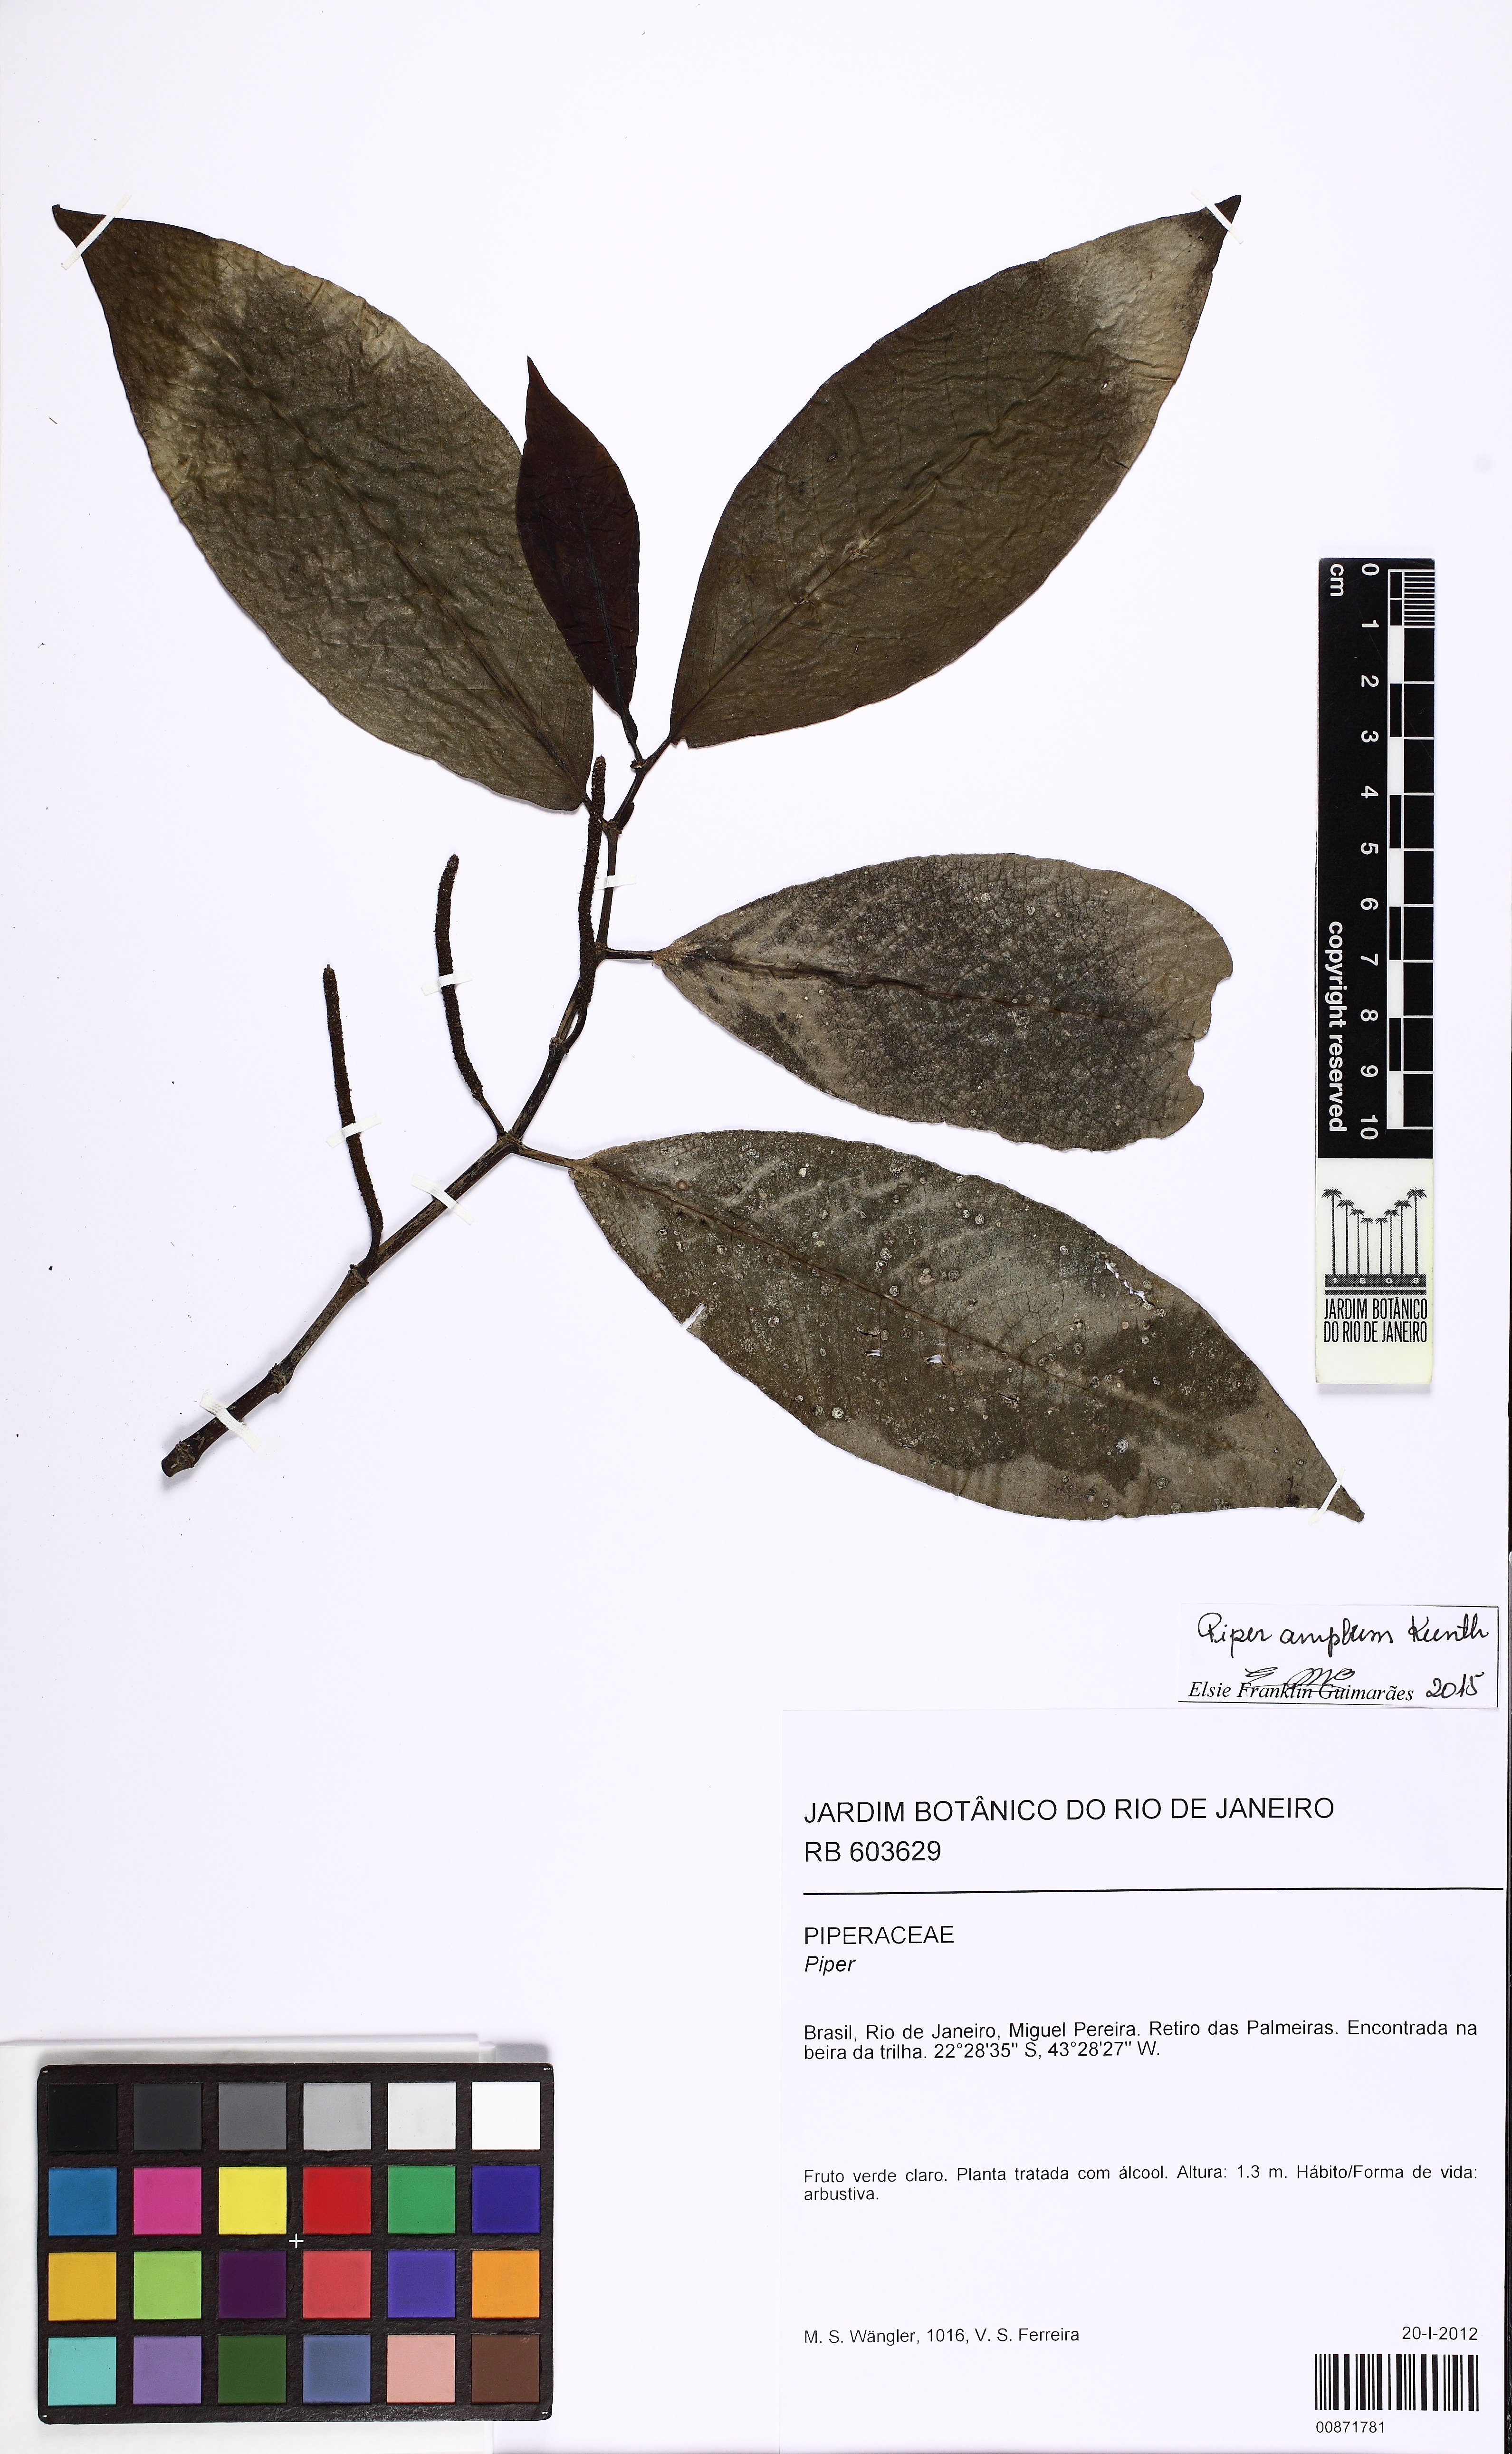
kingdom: Plantae
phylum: Tracheophyta
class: Magnoliopsida
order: Piperales
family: Piperaceae
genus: Piper
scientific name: Piper fluminense
